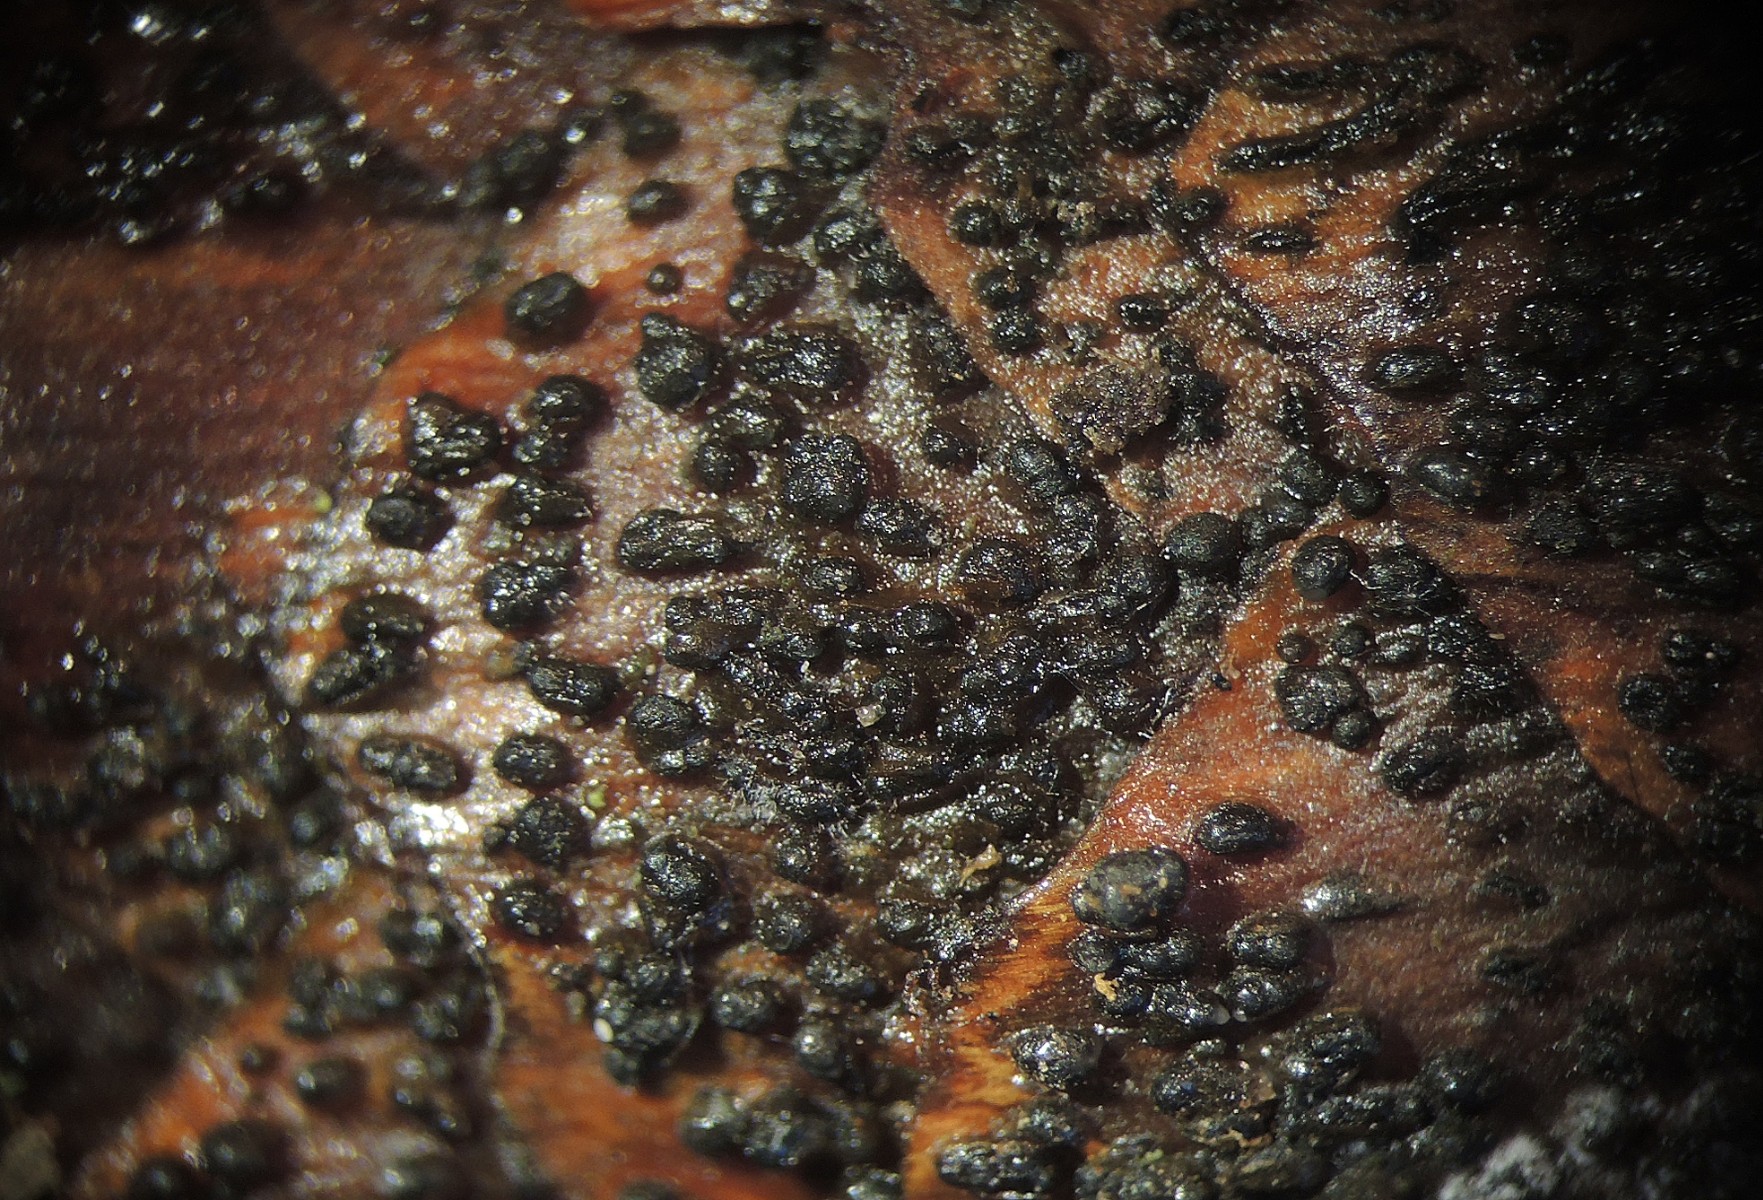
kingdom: Fungi
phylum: Ascomycota
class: Sordariomycetes
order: Diaporthales
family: Gnomoniaceae
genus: Sirococcus
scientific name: Sirococcus conigenus
